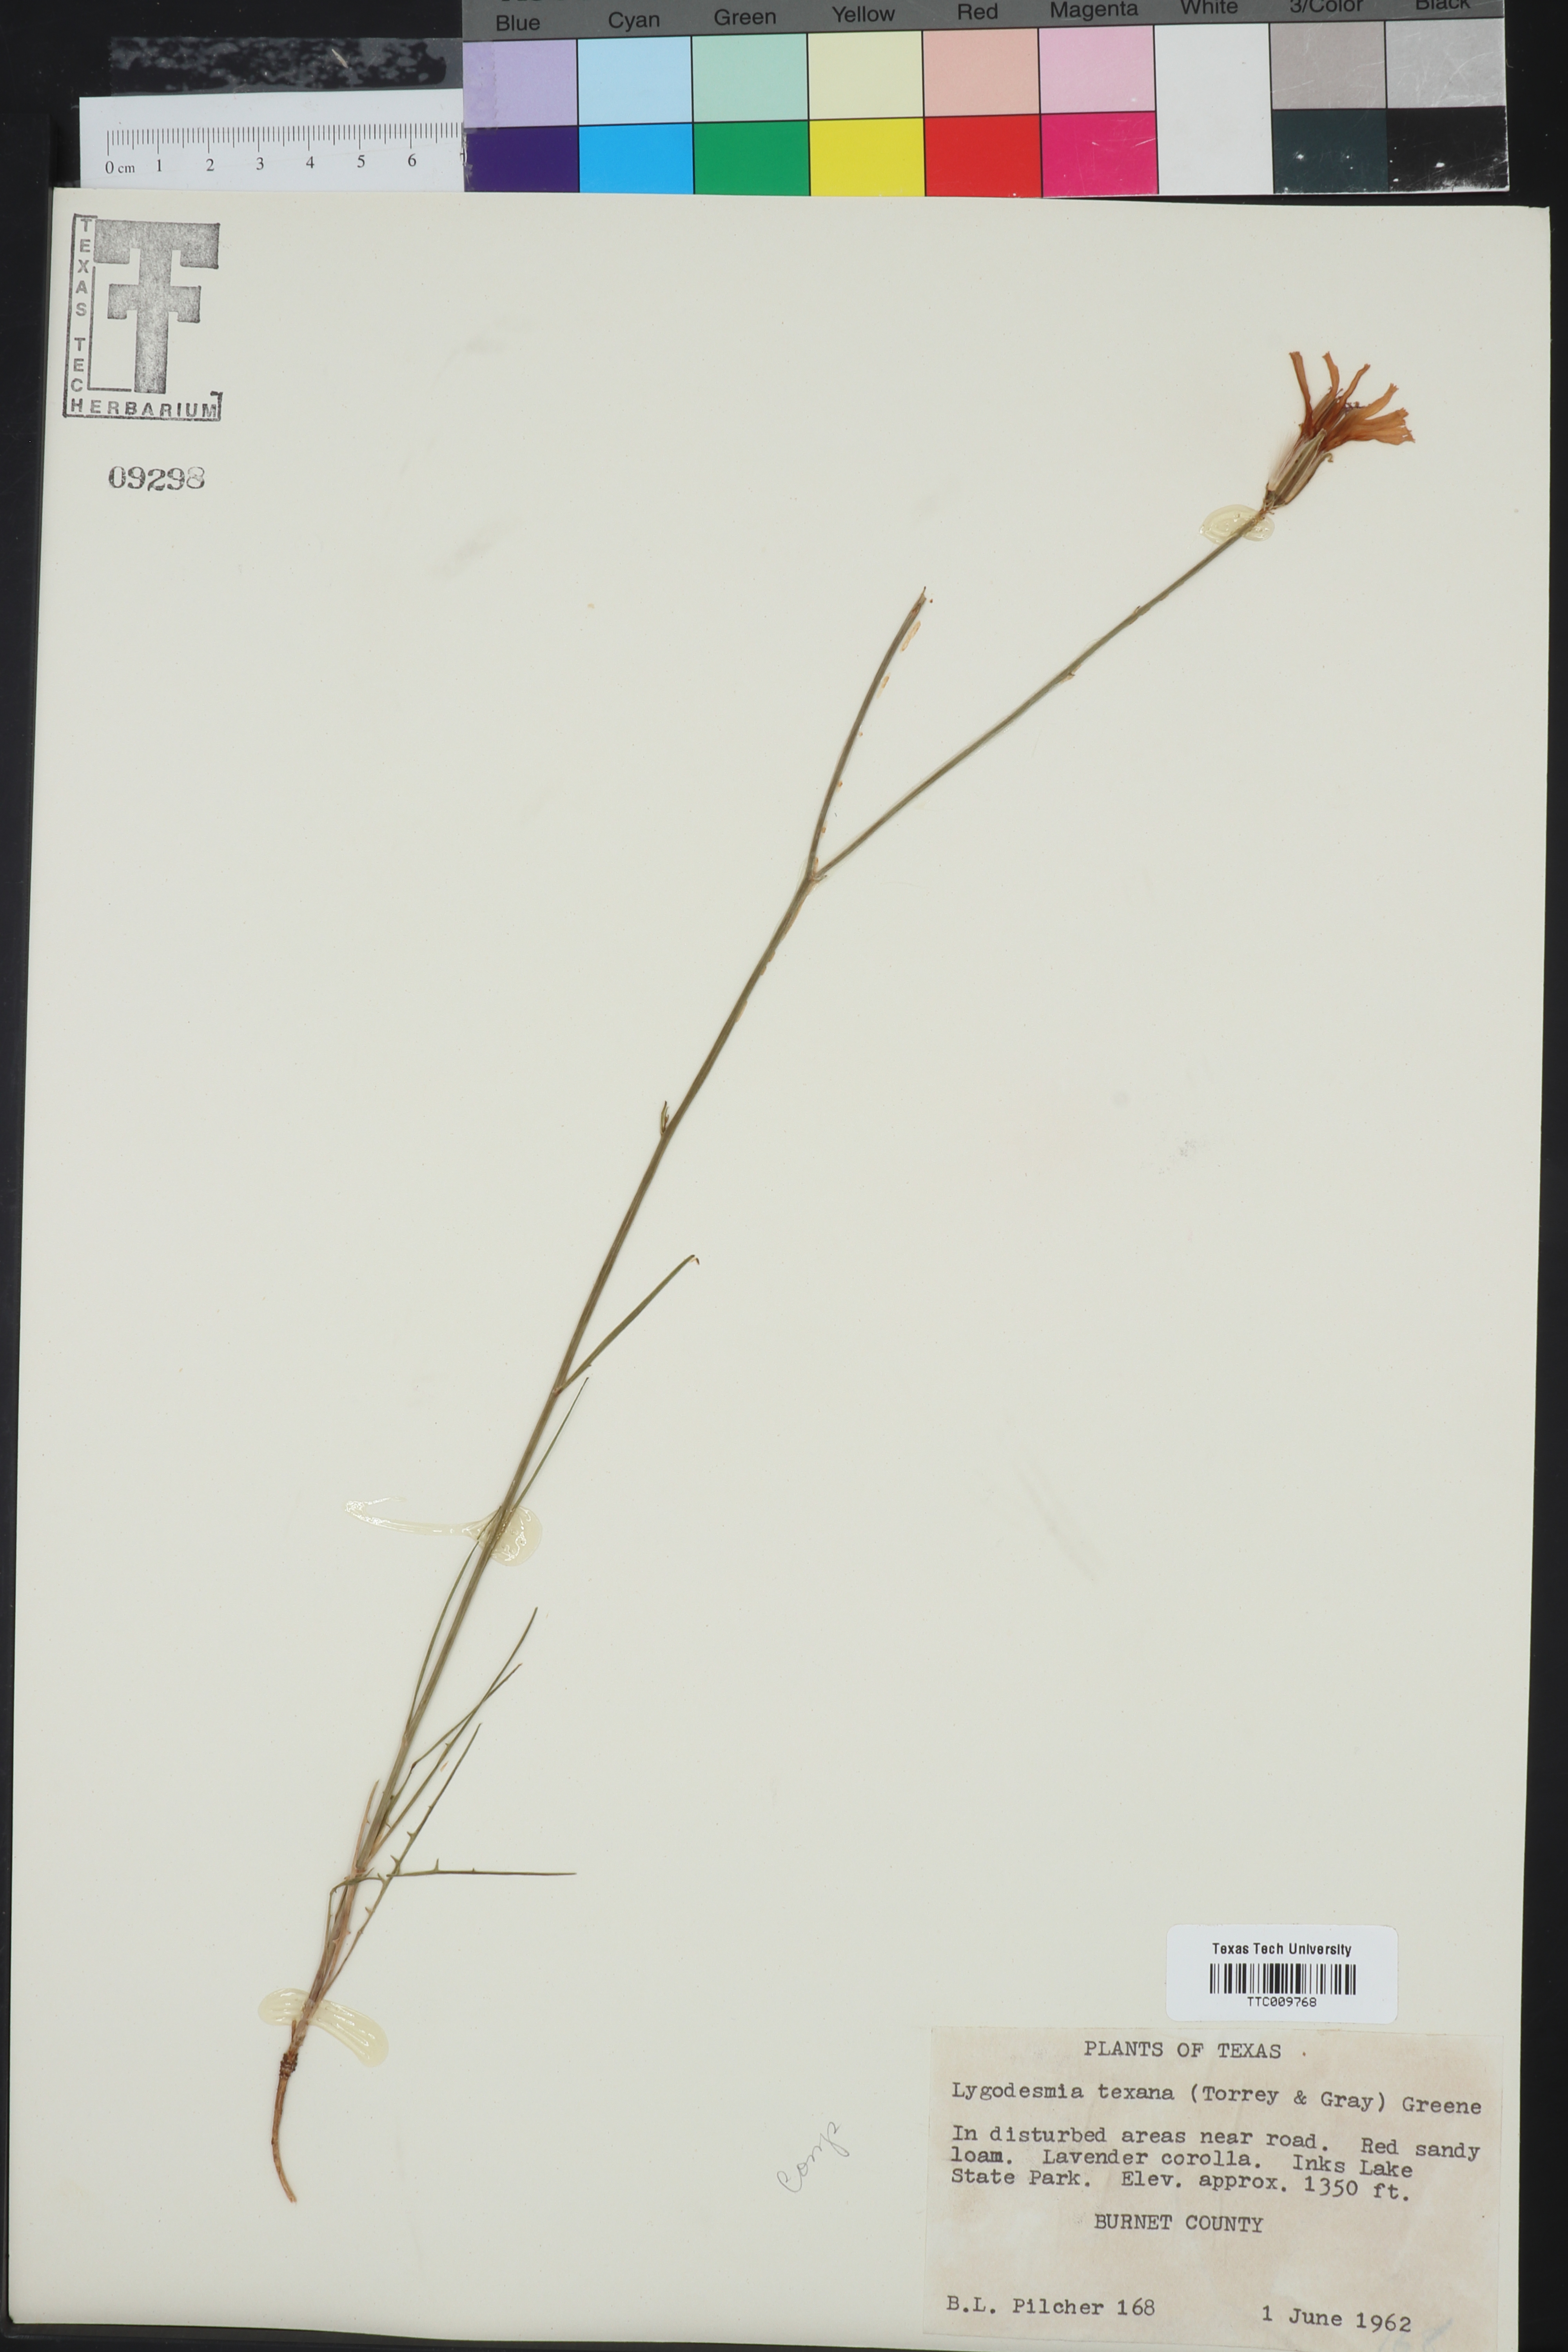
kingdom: Plantae
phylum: Tracheophyta
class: Magnoliopsida
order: Asterales
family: Asteraceae
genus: Lygodesmia
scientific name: Lygodesmia texana
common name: Texas skeleton-plant
